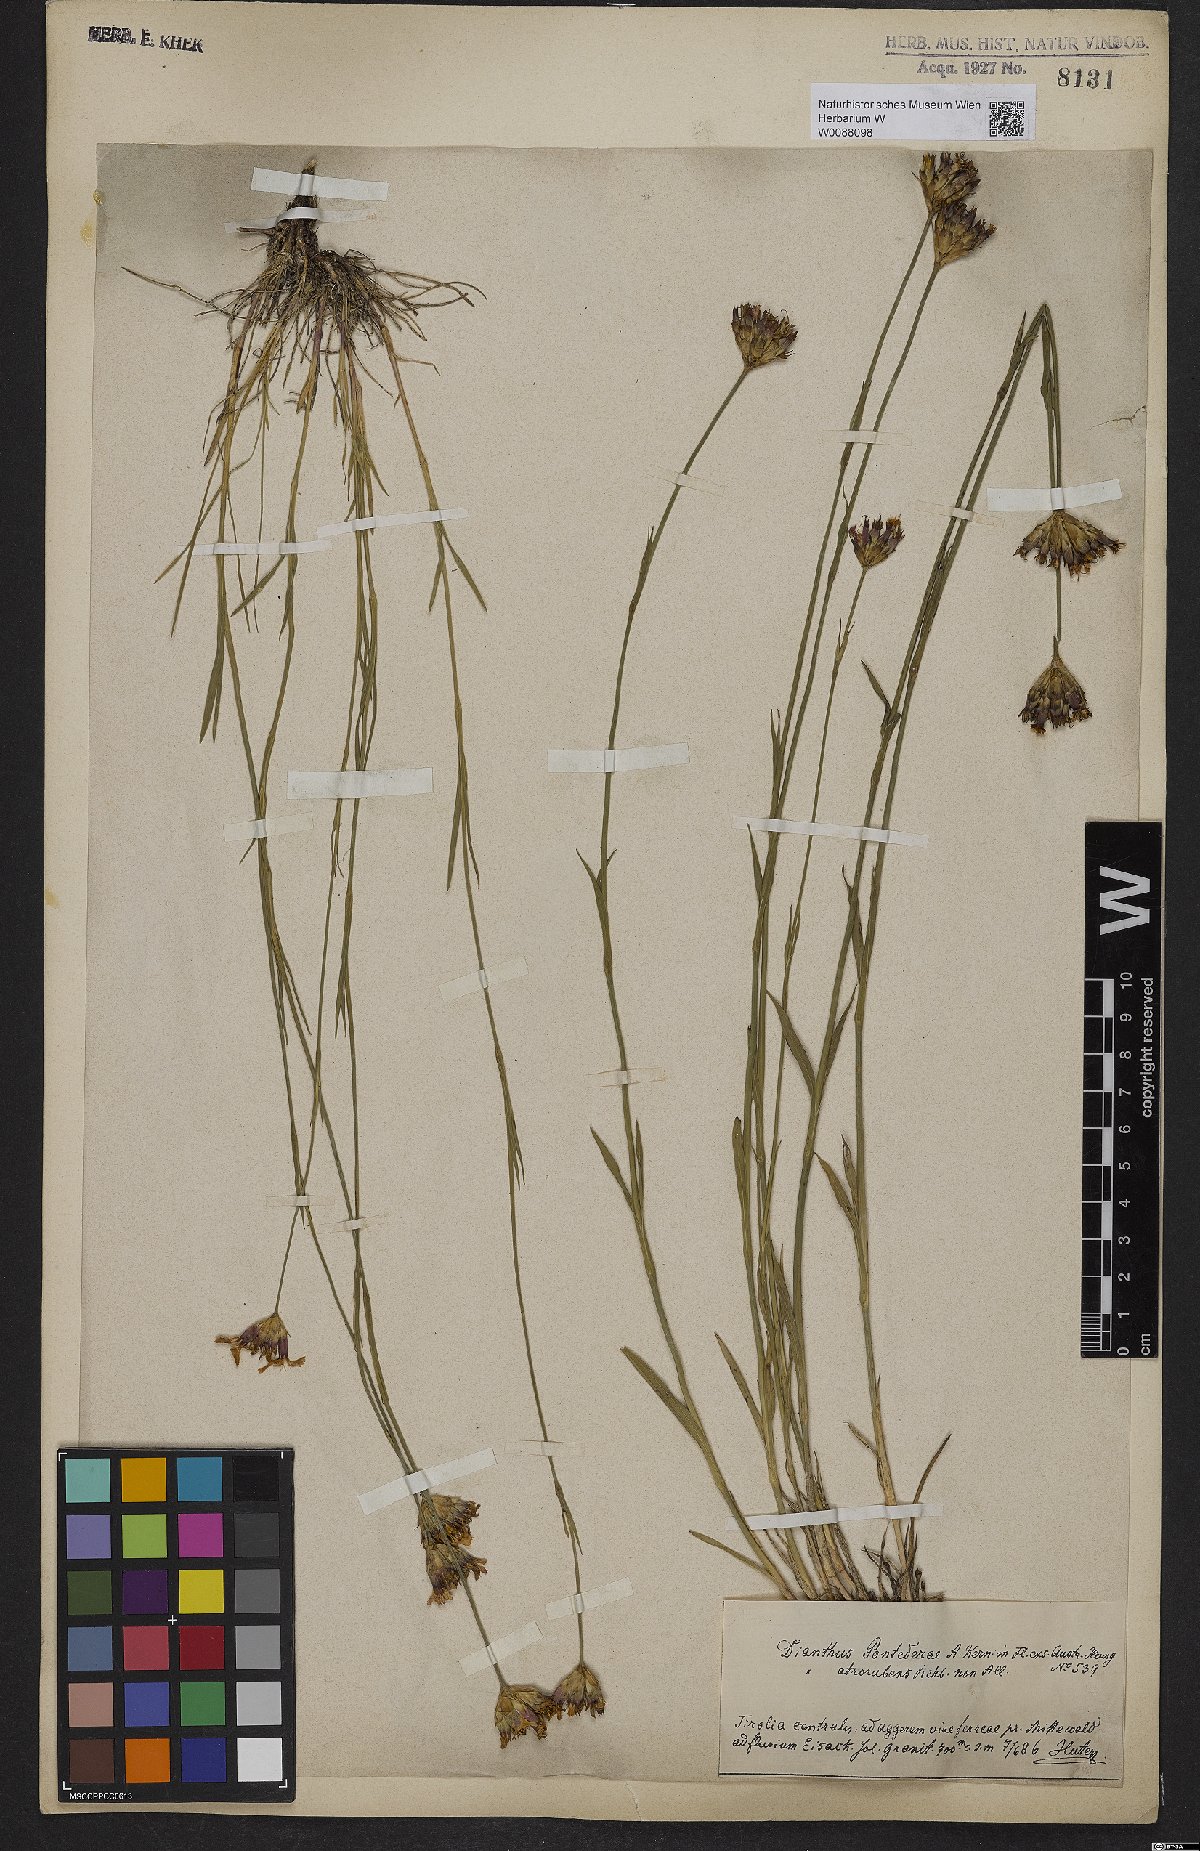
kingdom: Plantae
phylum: Tracheophyta
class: Magnoliopsida
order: Caryophyllales
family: Caryophyllaceae
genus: Dianthus
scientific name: Dianthus pontederae
